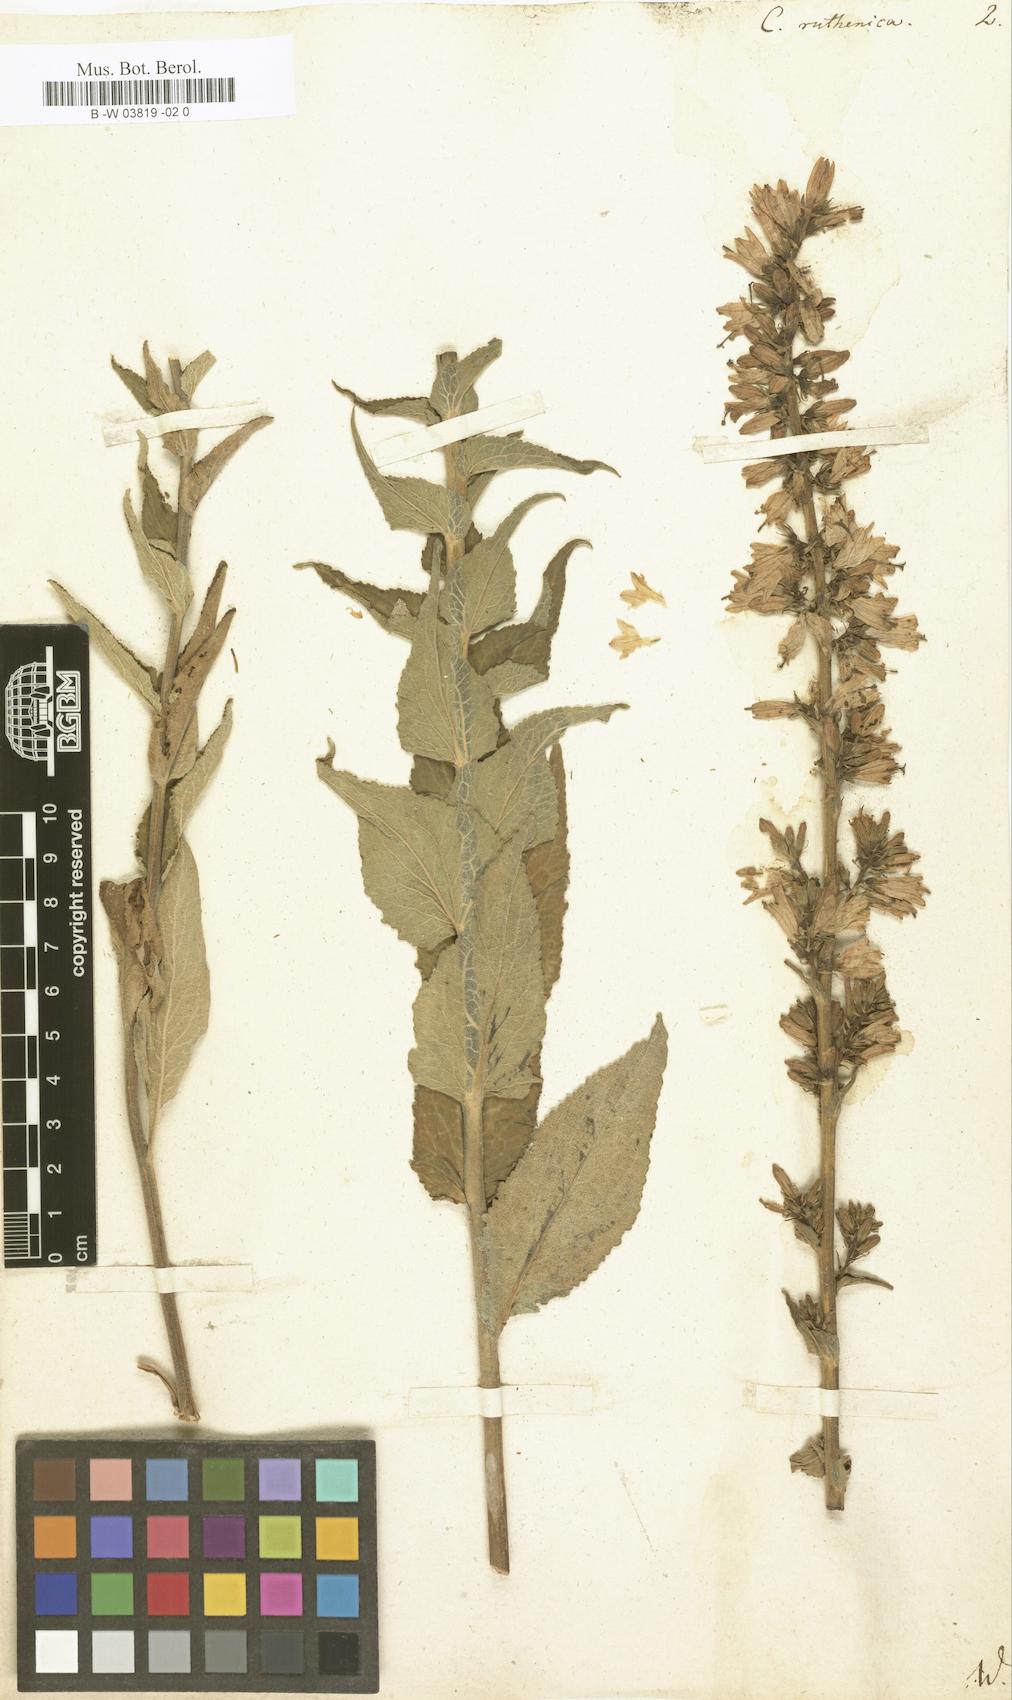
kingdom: Plantae
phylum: Tracheophyta
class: Magnoliopsida
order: Asterales
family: Campanulaceae
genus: Campanula
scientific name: Campanula bononiensis
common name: Pale bellflower
